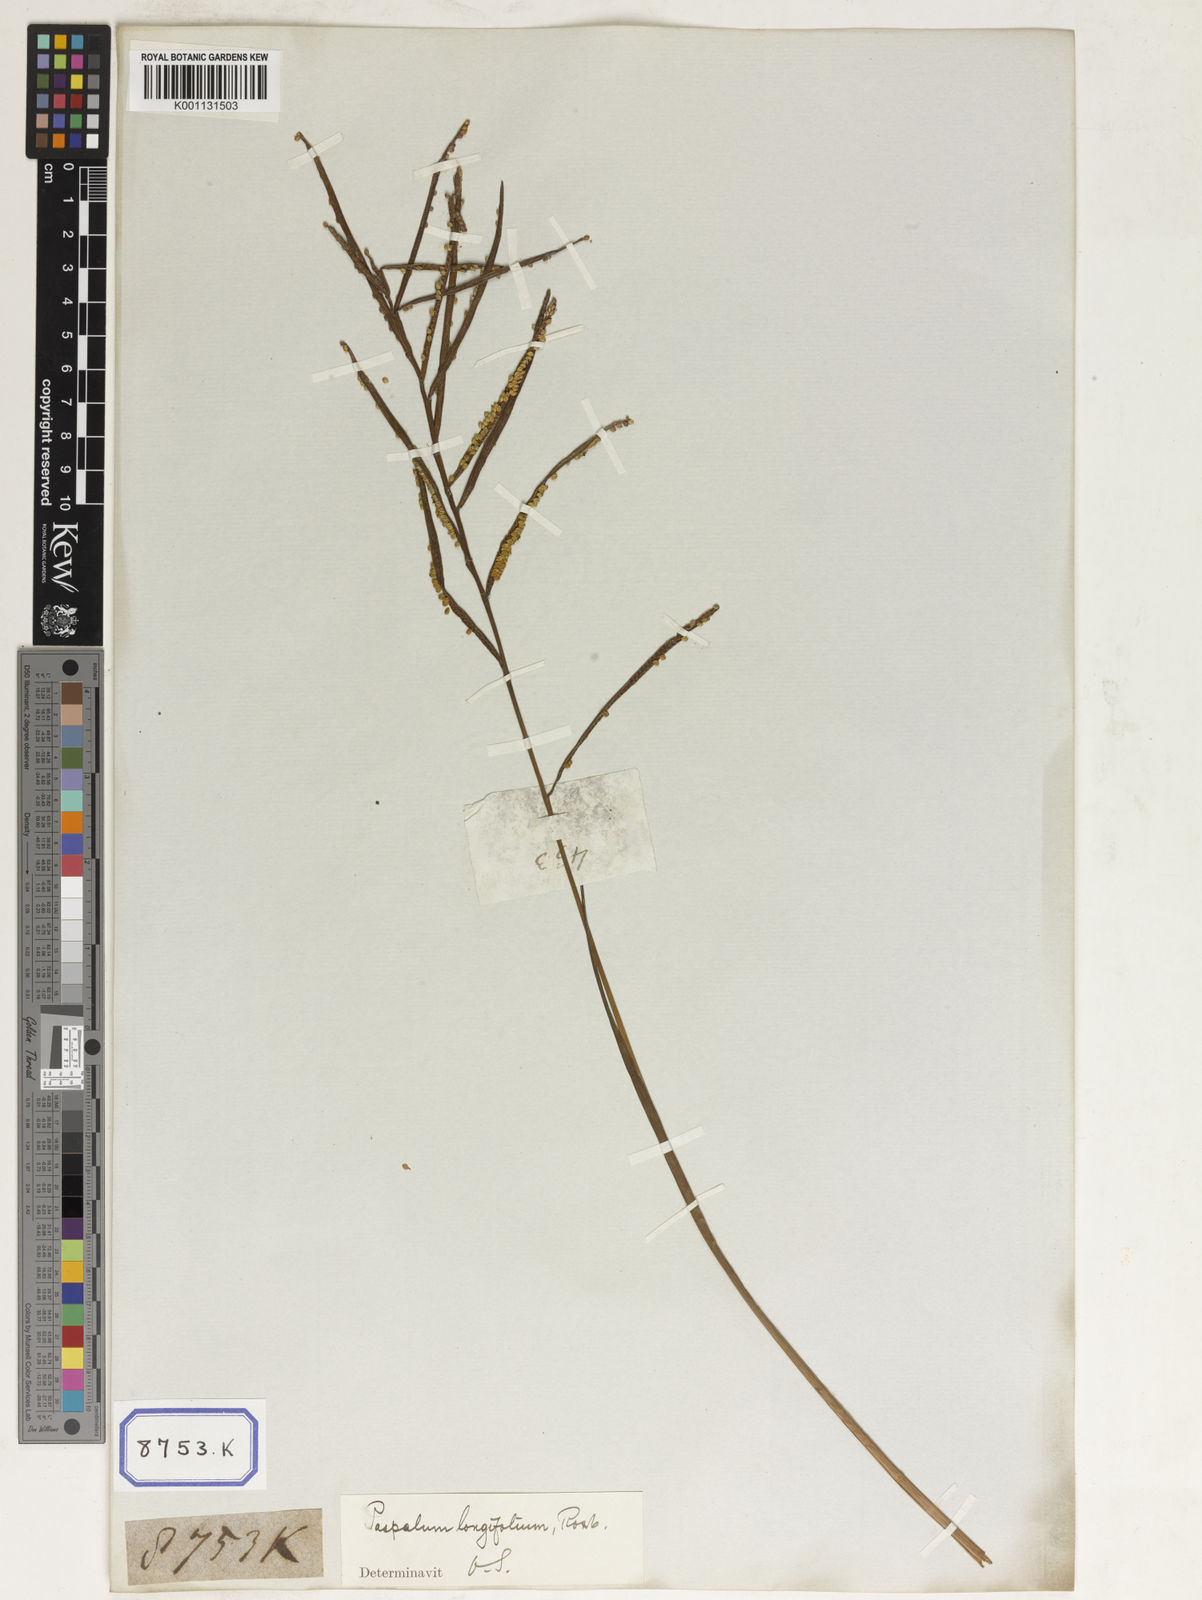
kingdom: Plantae
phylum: Tracheophyta
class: Liliopsida
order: Poales
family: Poaceae
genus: Paspalum
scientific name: Paspalum scrobiculatum
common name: Kodo millet
